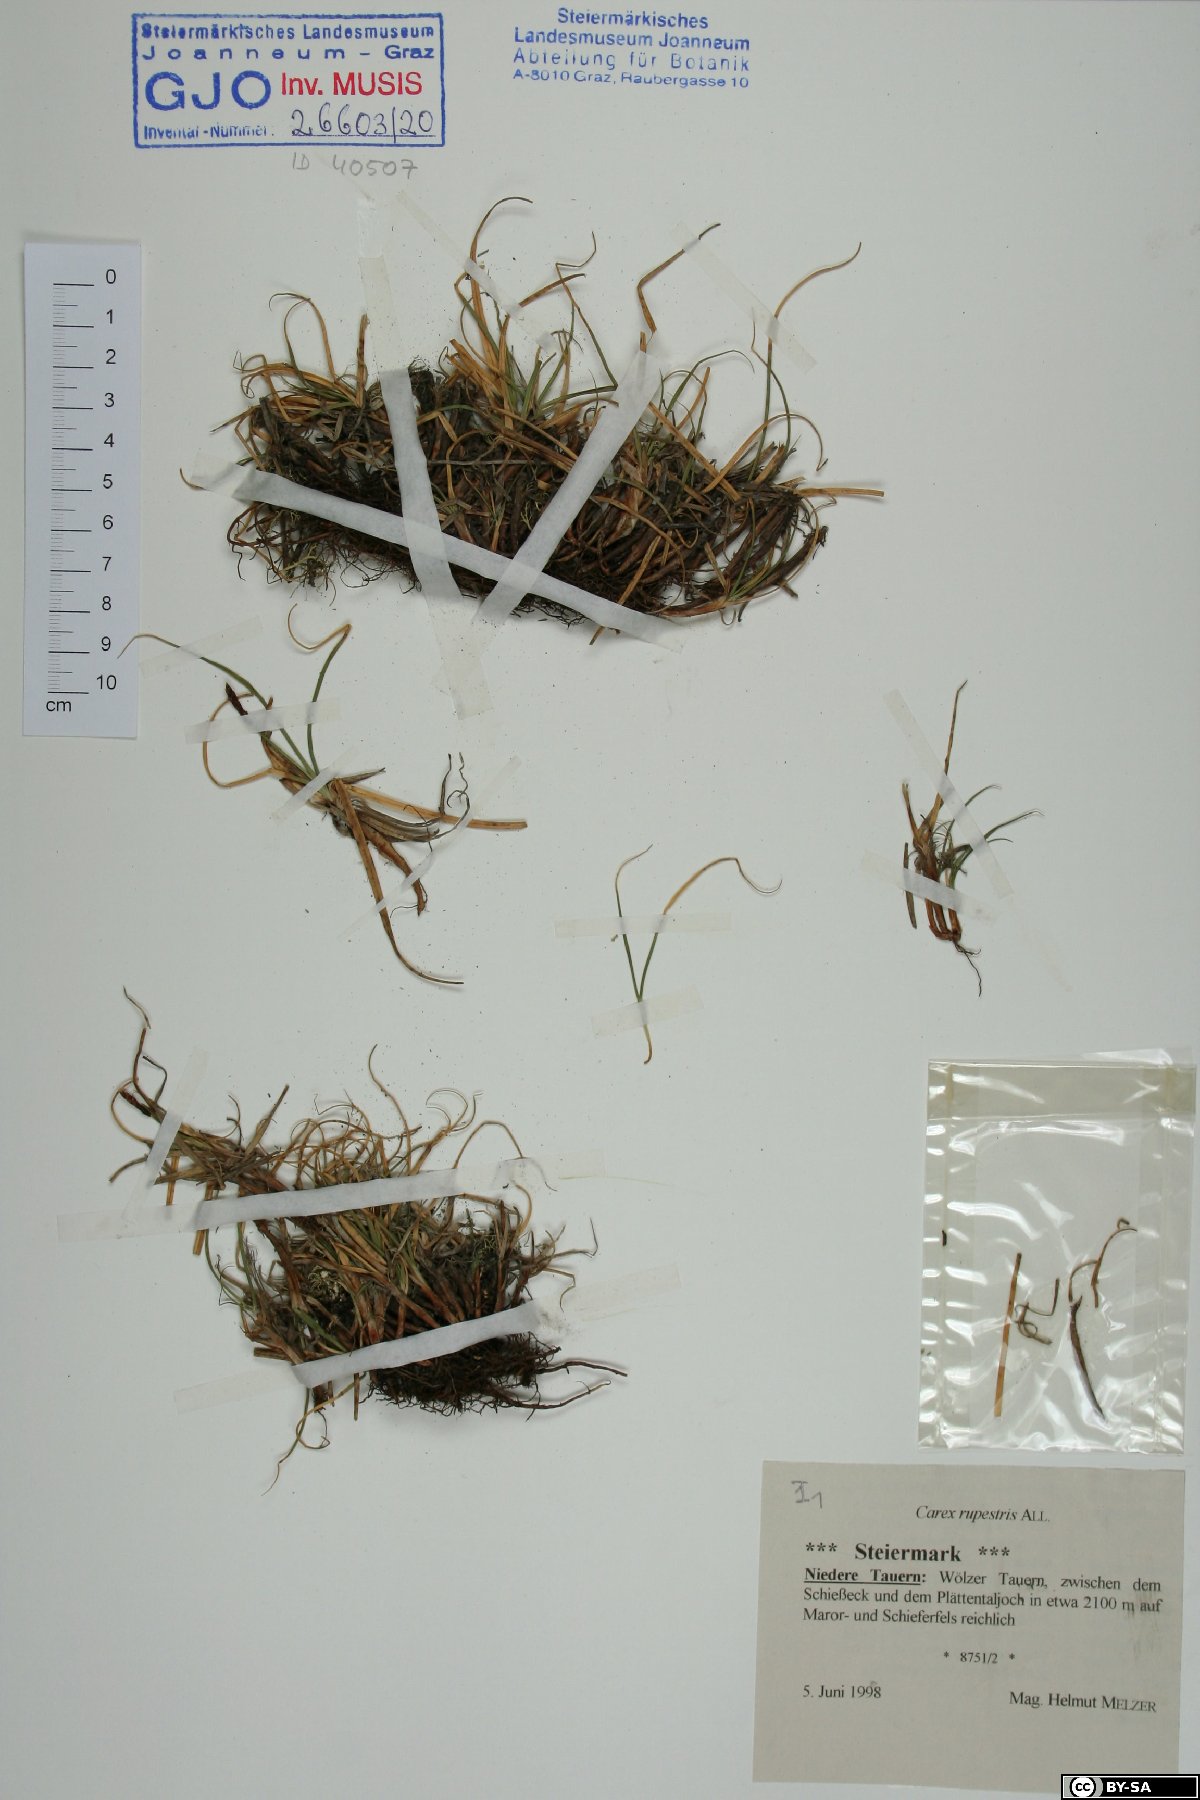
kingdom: Plantae
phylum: Tracheophyta
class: Liliopsida
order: Poales
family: Cyperaceae
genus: Carex
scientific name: Carex rupestris
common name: Rock sedge
